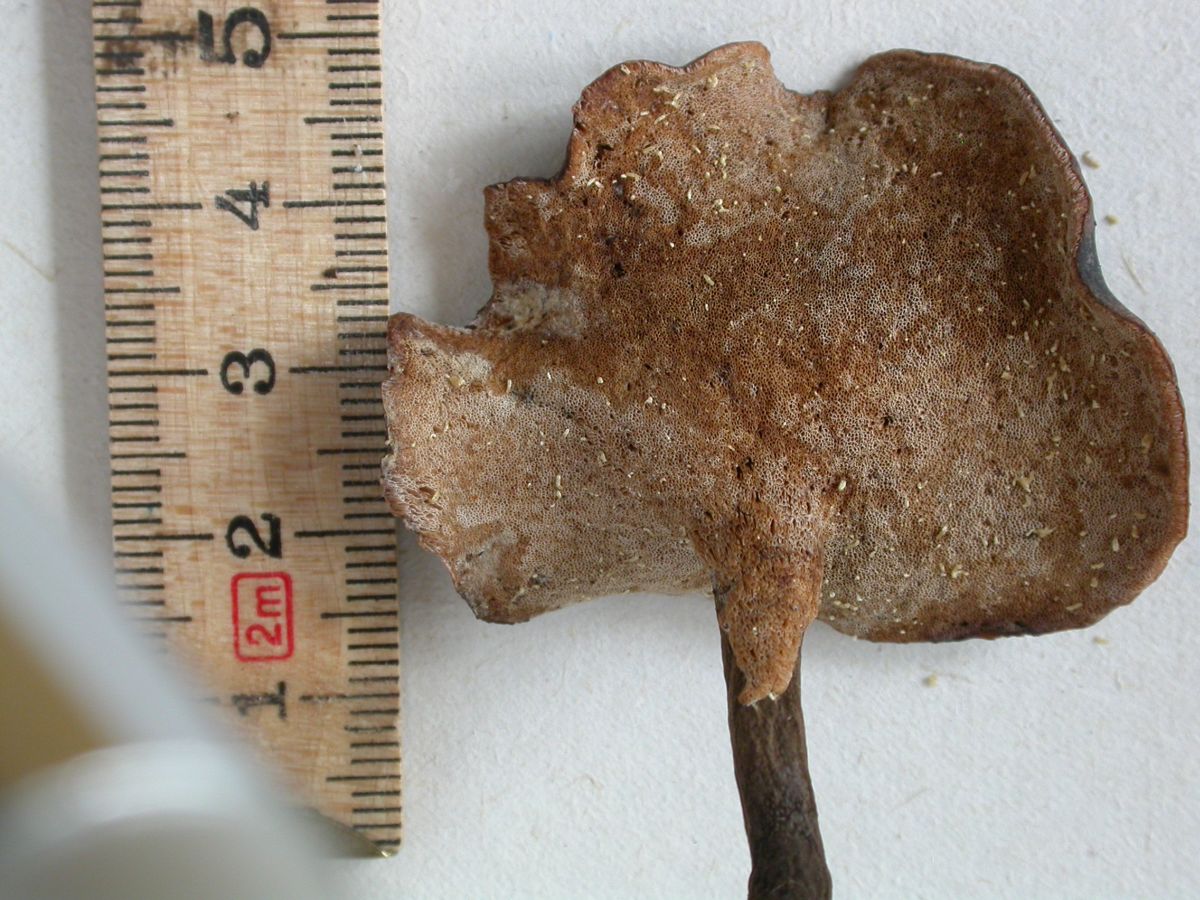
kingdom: Fungi
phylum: Basidiomycota
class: Agaricomycetes
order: Polyporales
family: Polyporaceae
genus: Picipes
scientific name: Picipes tubaeformis
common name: trompet-stilkporesvamp
